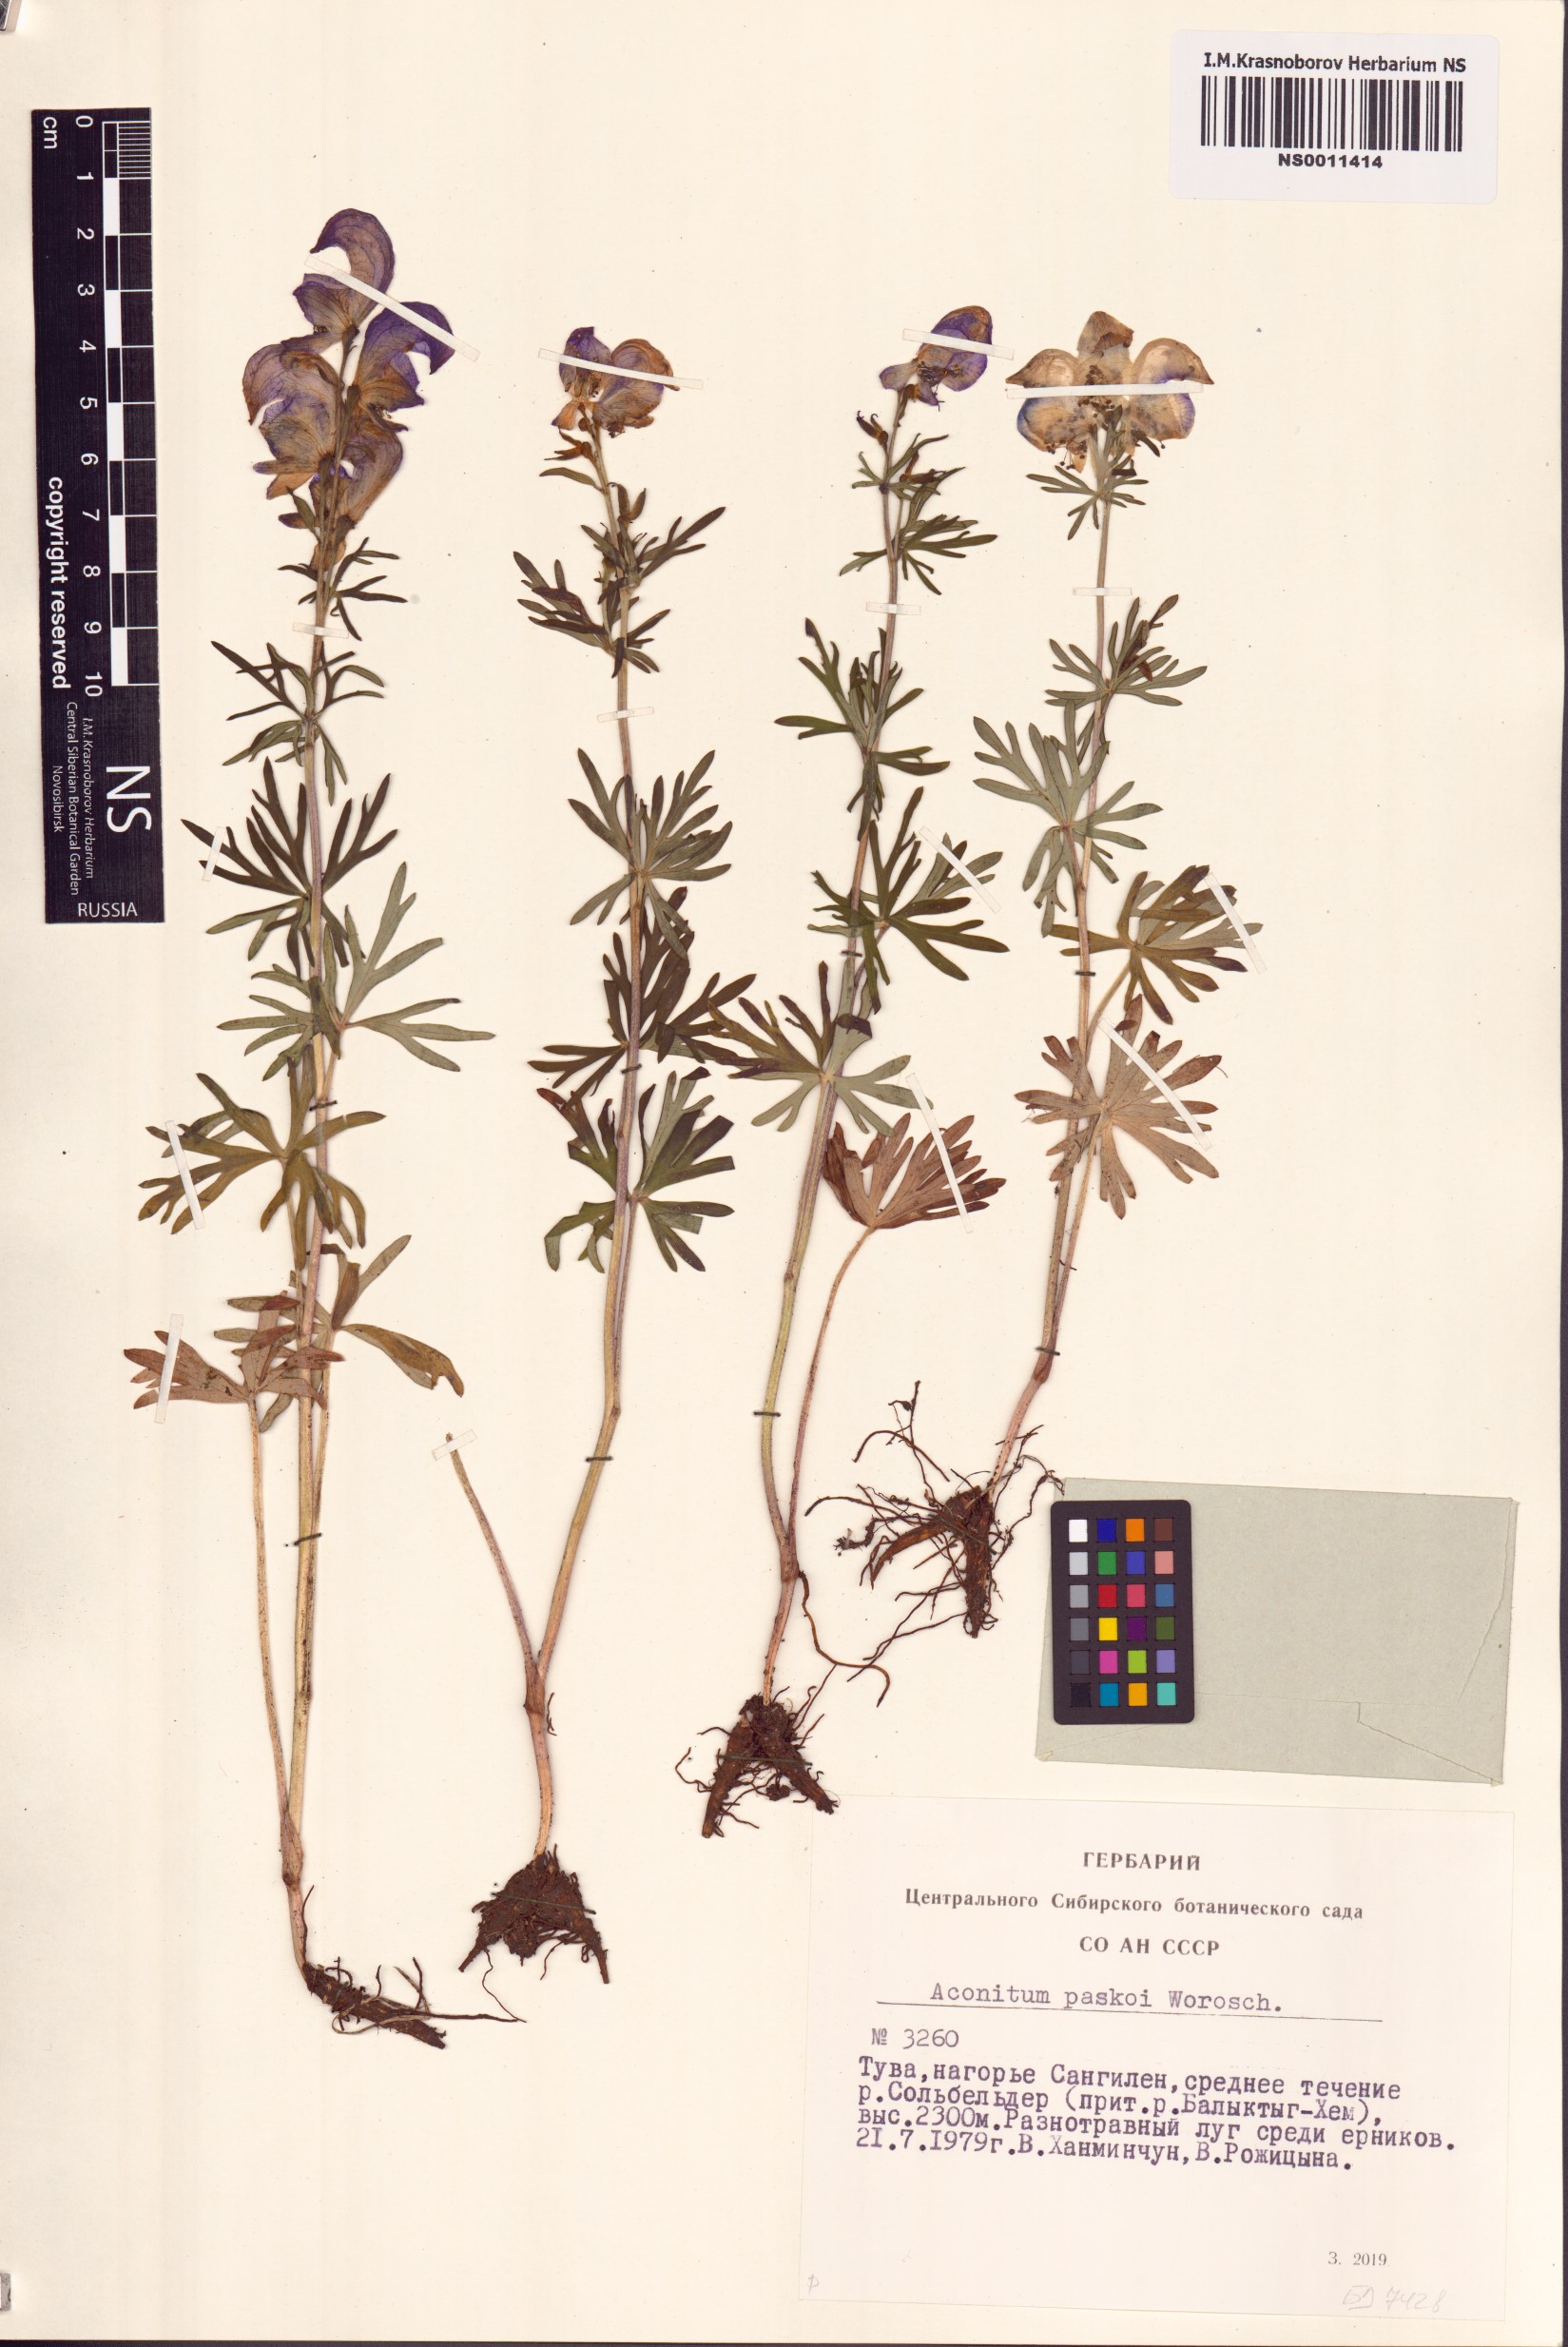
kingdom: Plantae
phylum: Tracheophyta
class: Magnoliopsida
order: Ranunculales
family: Ranunculaceae
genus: Aconitum
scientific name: Aconitum pascoi
